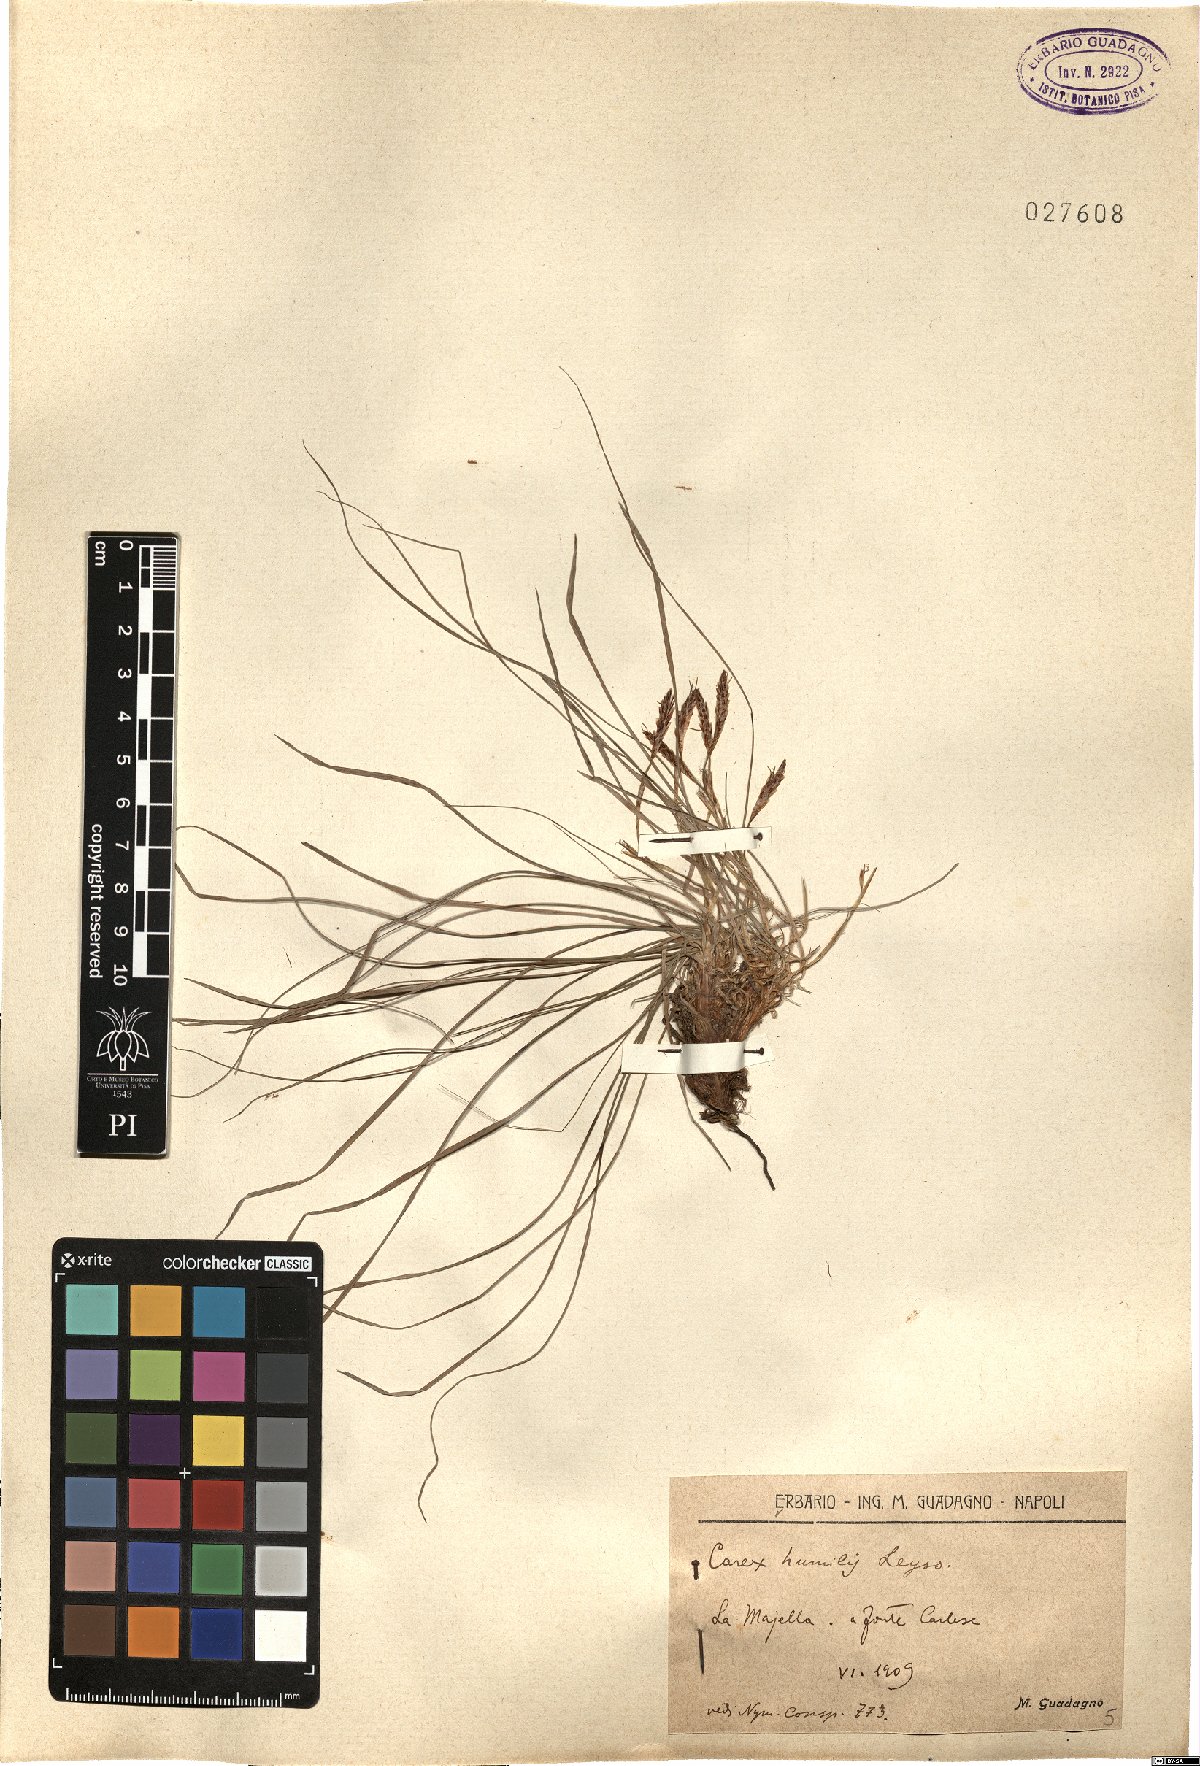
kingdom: Plantae
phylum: Tracheophyta
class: Liliopsida
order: Poales
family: Cyperaceae
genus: Carex
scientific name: Carex humilis
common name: Dwarf sedge
